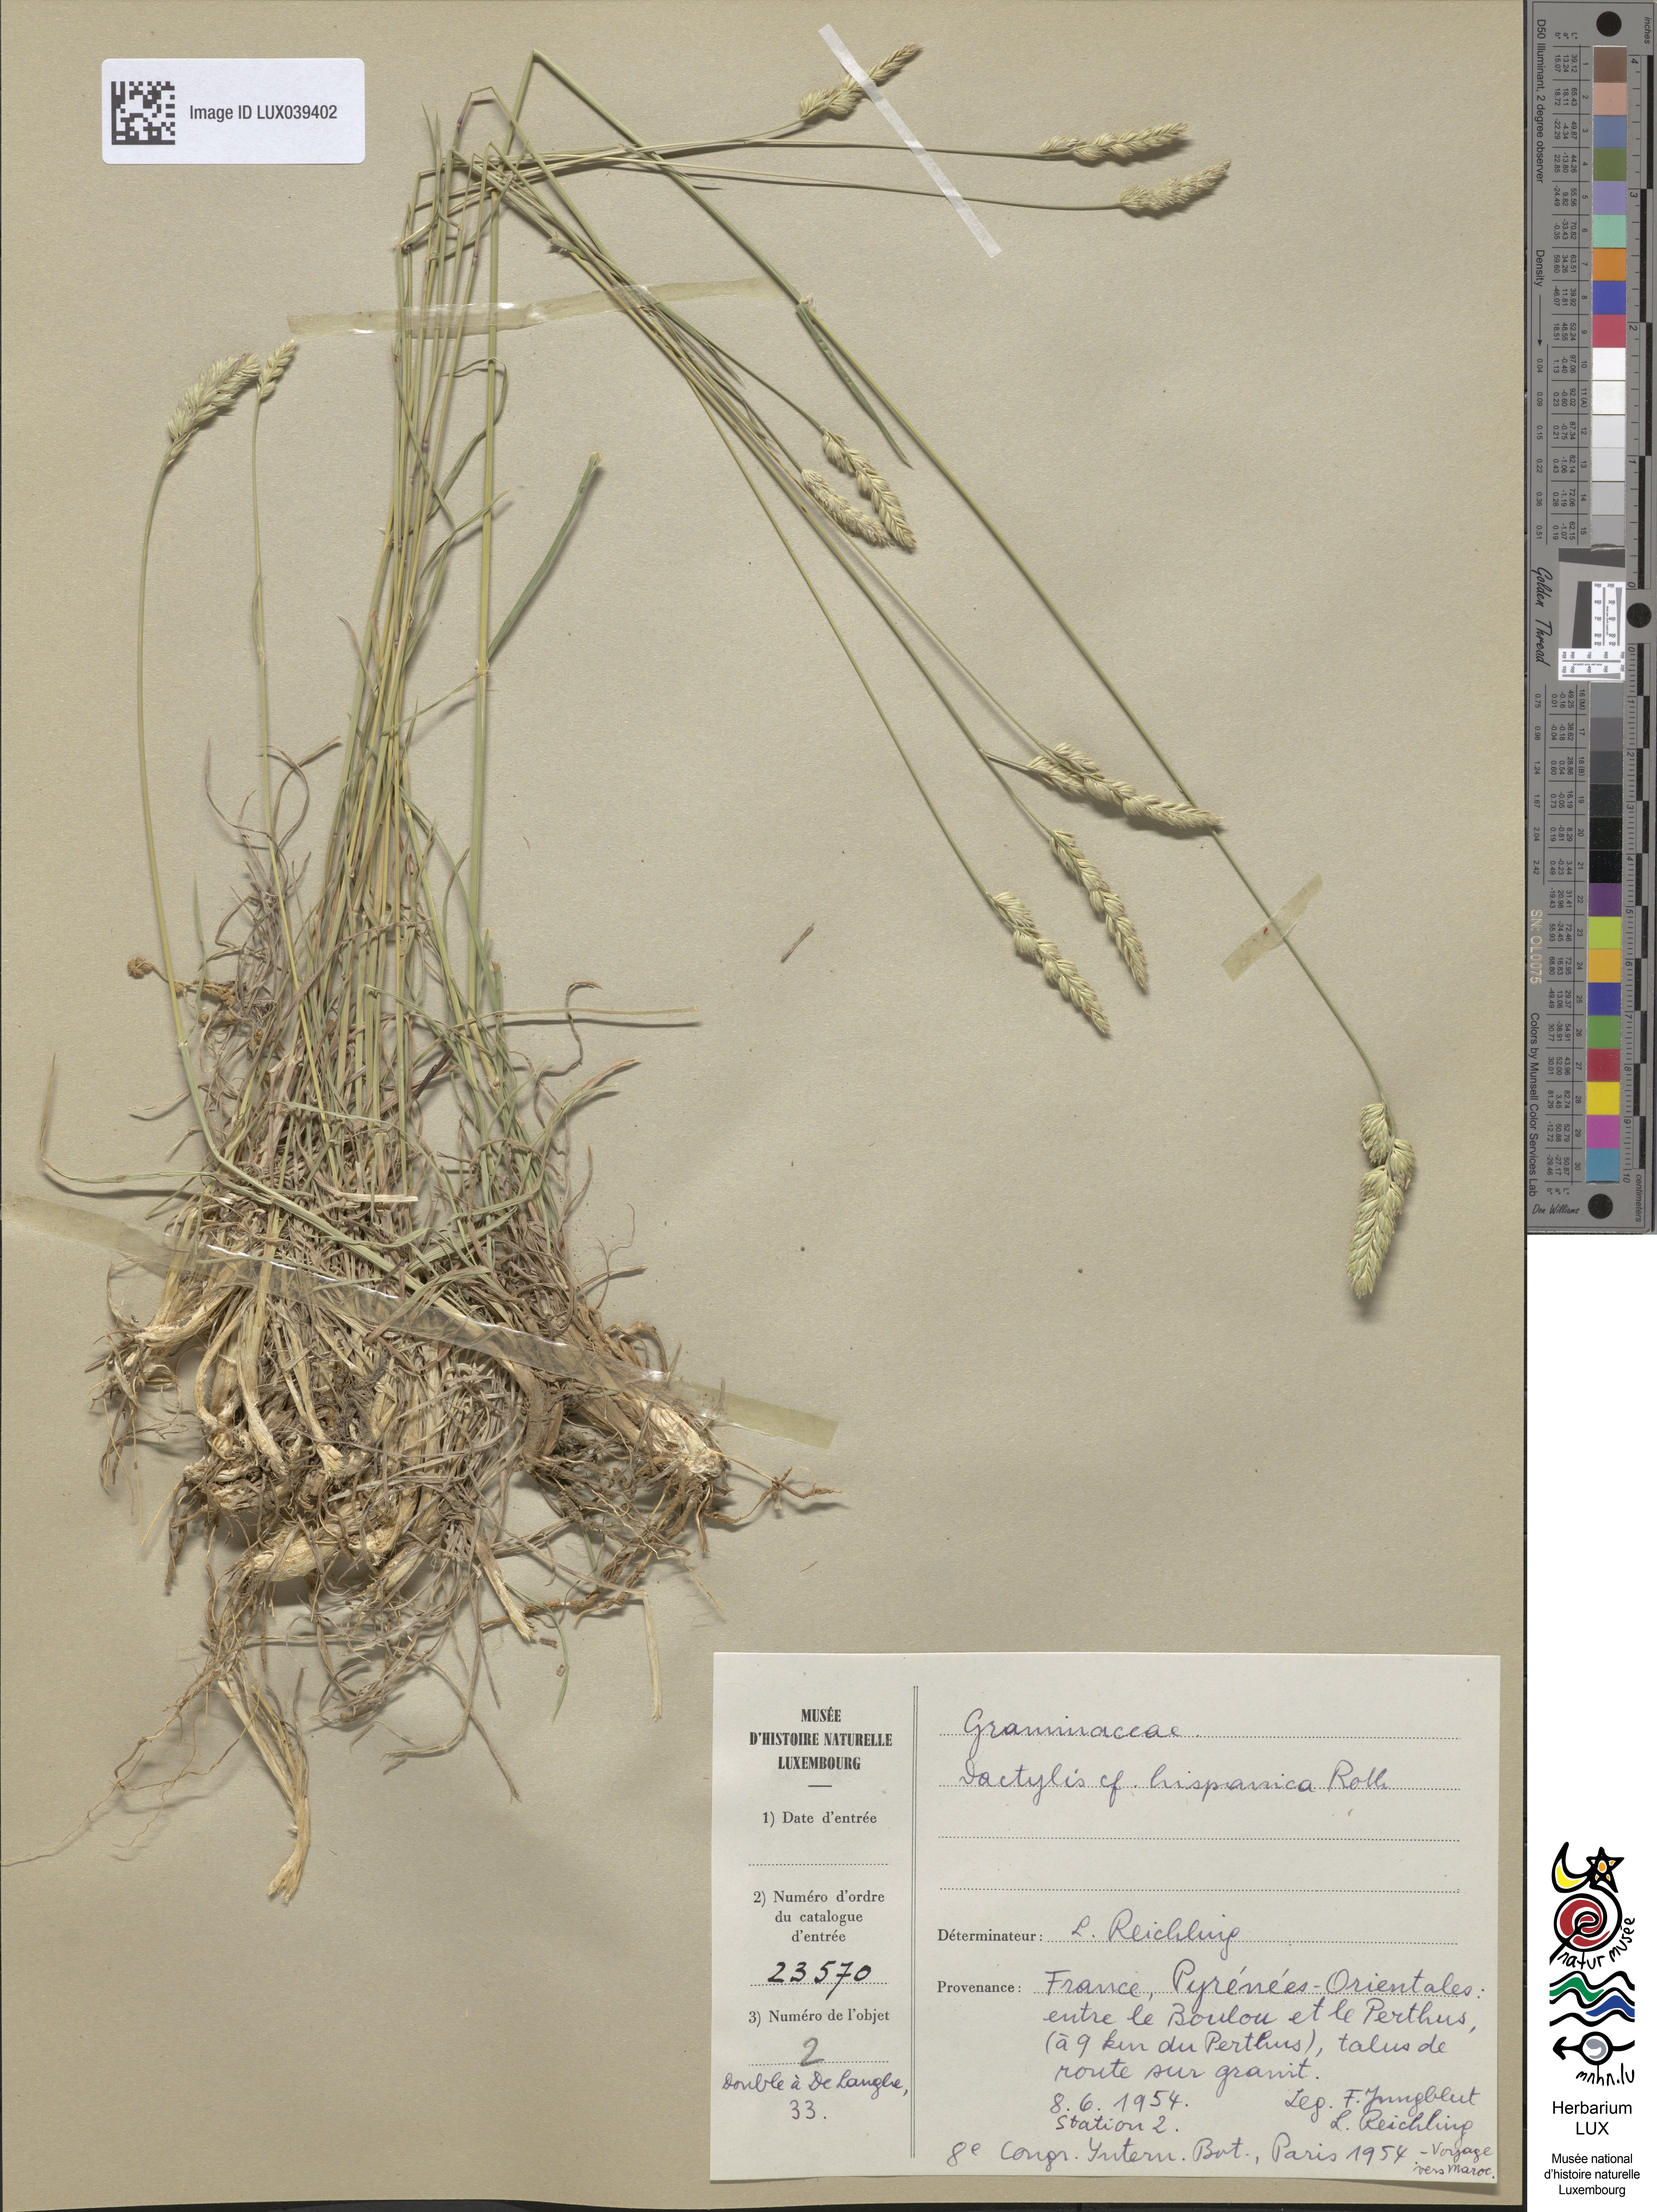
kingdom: Plantae
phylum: Tracheophyta
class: Liliopsida
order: Poales
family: Poaceae
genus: Dactylis
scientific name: Dactylis glomerata
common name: Orchardgrass
